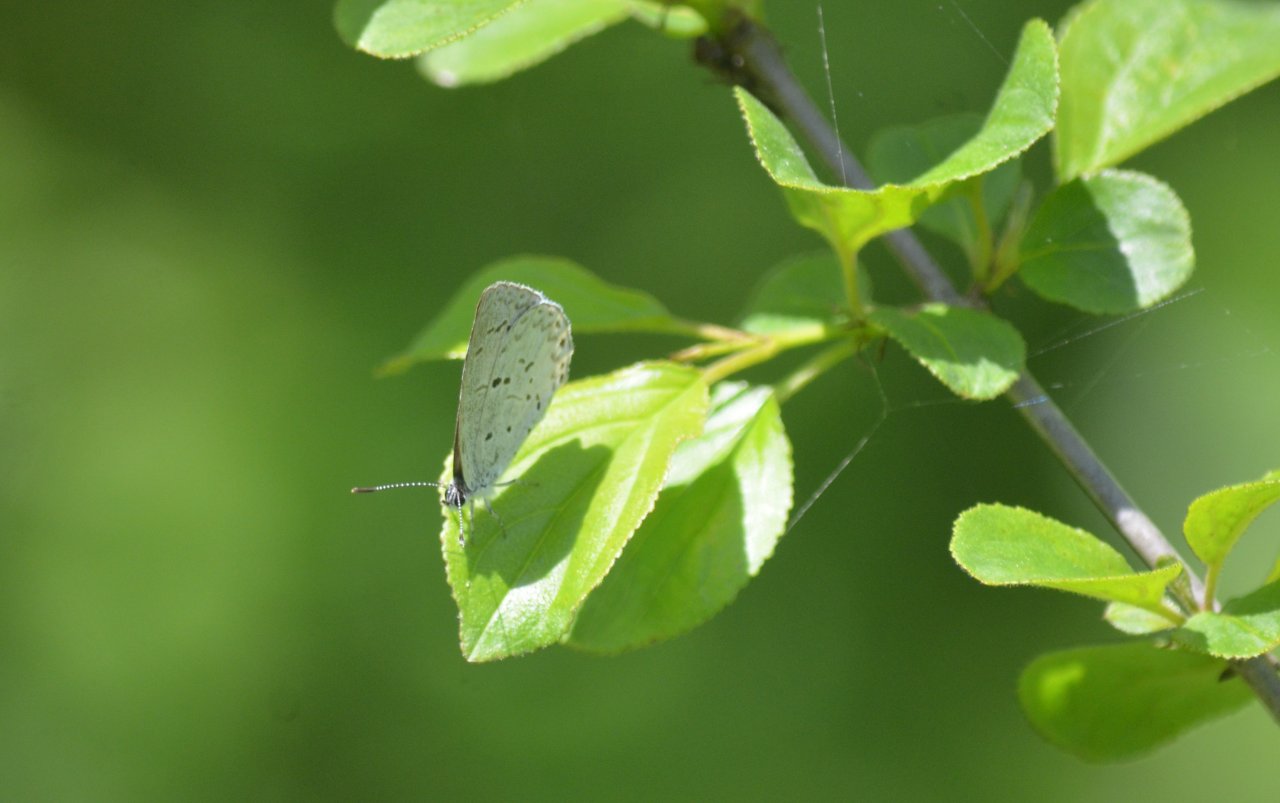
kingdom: Animalia
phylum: Arthropoda
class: Insecta
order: Lepidoptera
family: Lycaenidae
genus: Celastrina
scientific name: Celastrina
